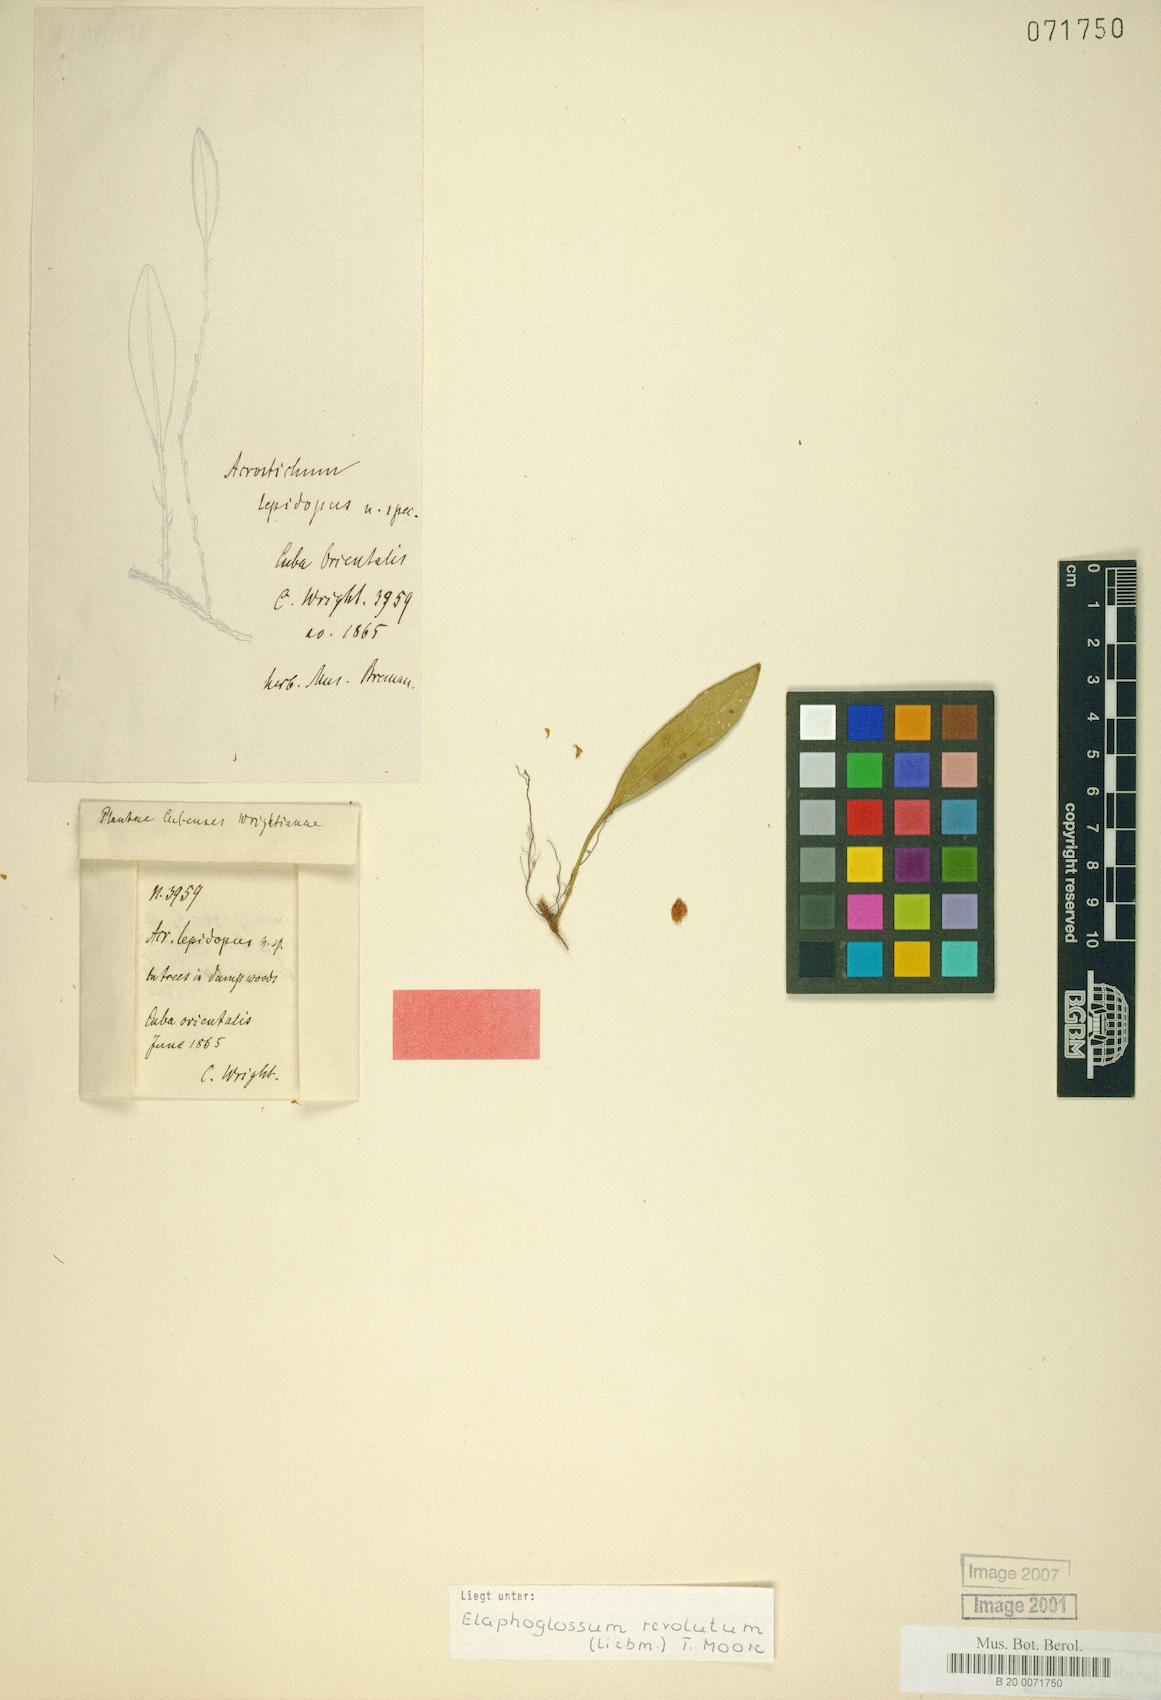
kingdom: Plantae
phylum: Tracheophyta
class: Polypodiopsida
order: Polypodiales
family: Dryopteridaceae
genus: Elaphoglossum
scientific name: Elaphoglossum revolutum
